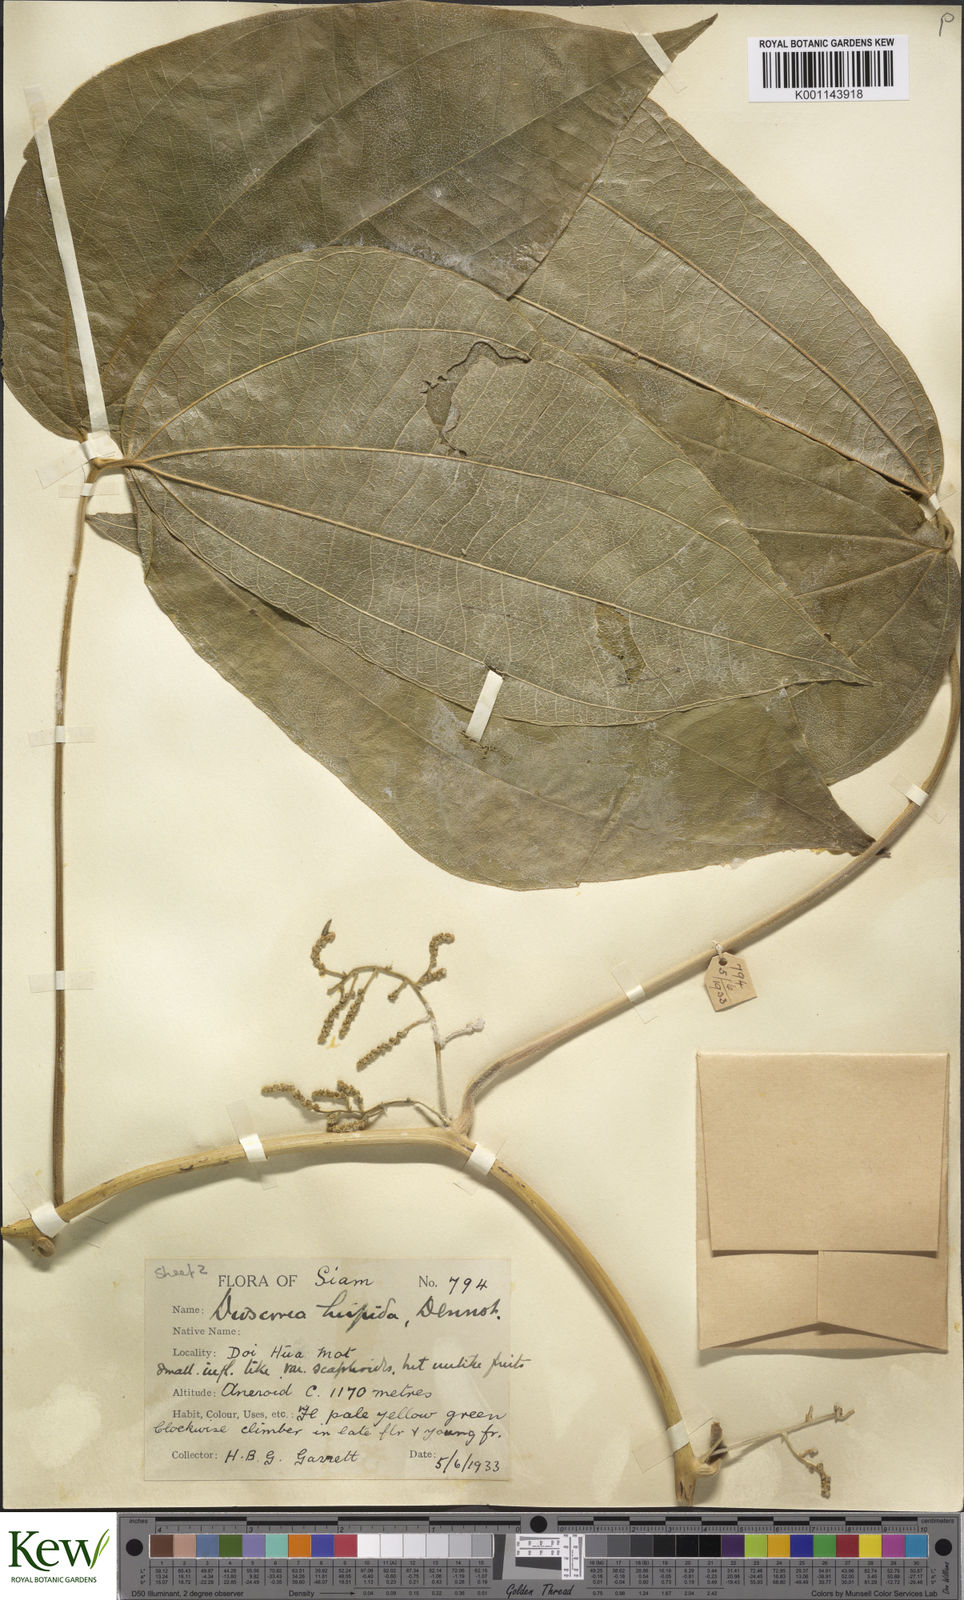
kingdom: Plantae
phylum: Tracheophyta
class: Liliopsida
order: Dioscoreales
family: Dioscoreaceae
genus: Dioscorea
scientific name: Dioscorea hispida
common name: Asiatic bitter yam
